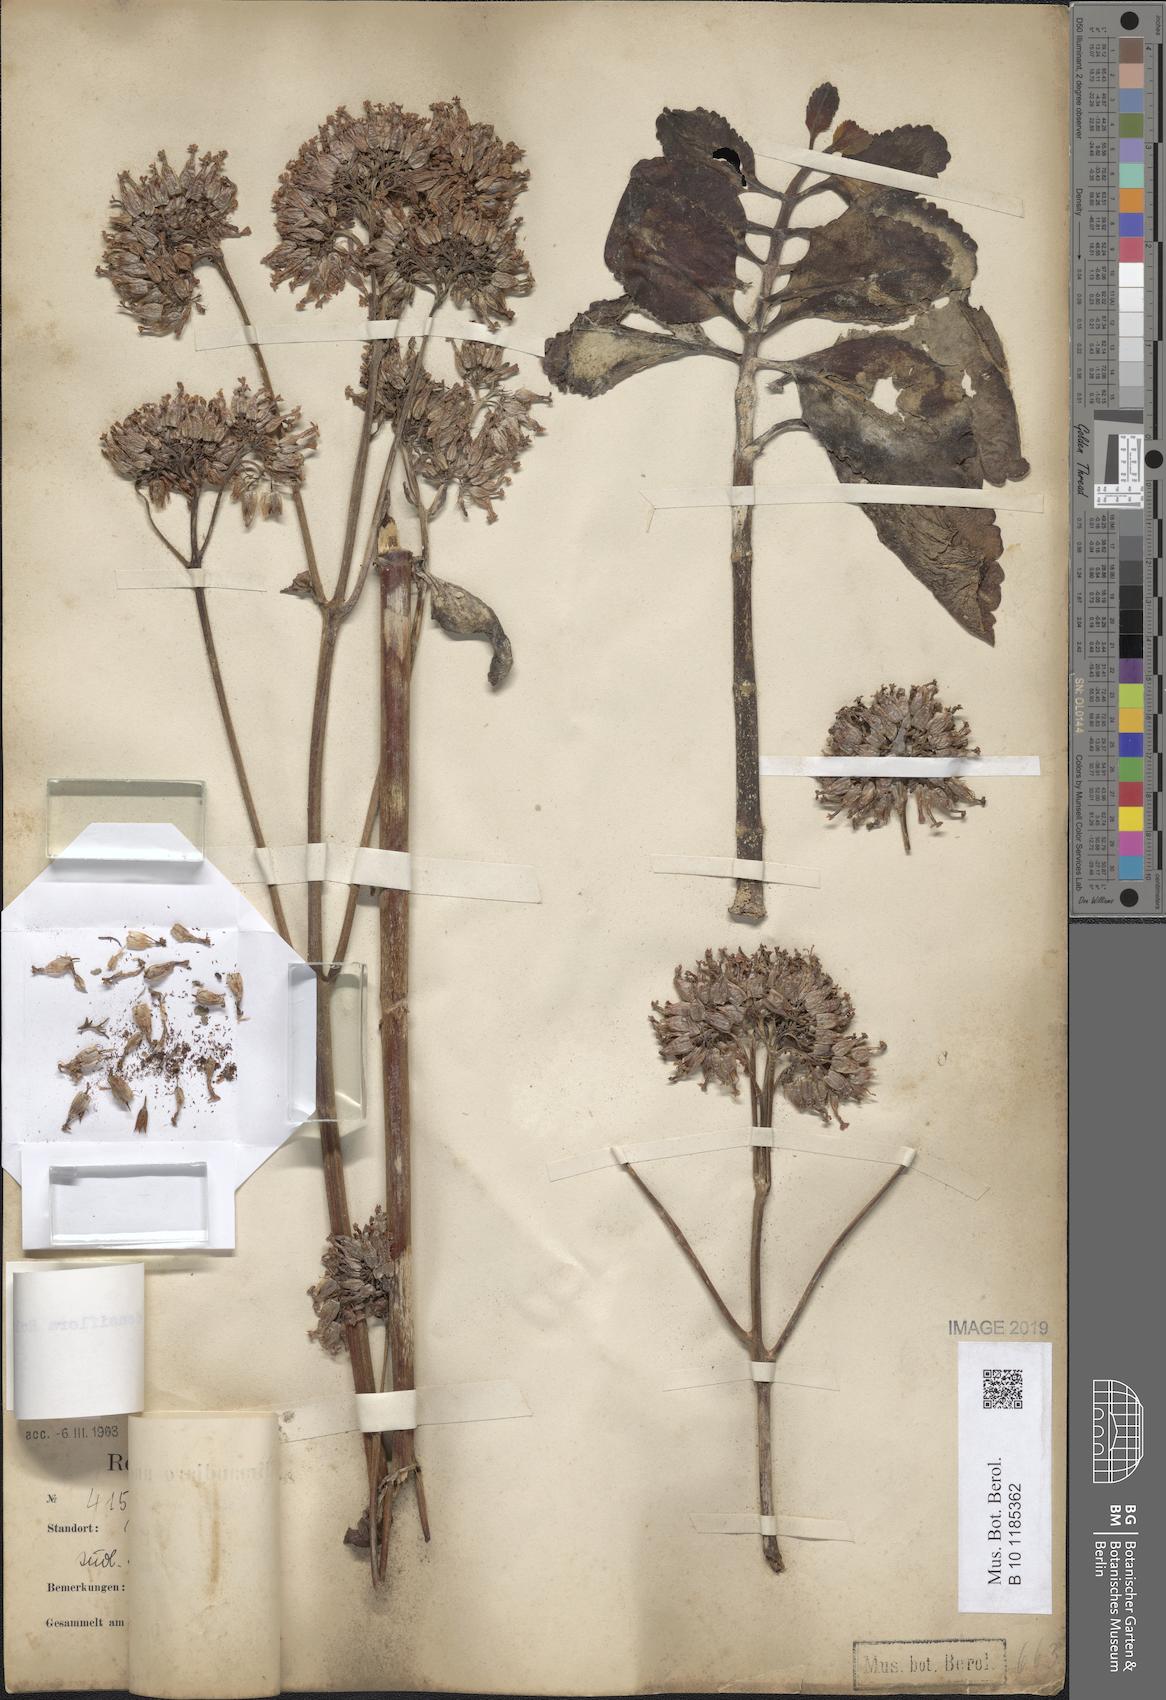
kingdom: Plantae
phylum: Tracheophyta
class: Magnoliopsida
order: Saxifragales
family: Crassulaceae
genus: Kalanchoe
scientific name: Kalanchoe densiflora
